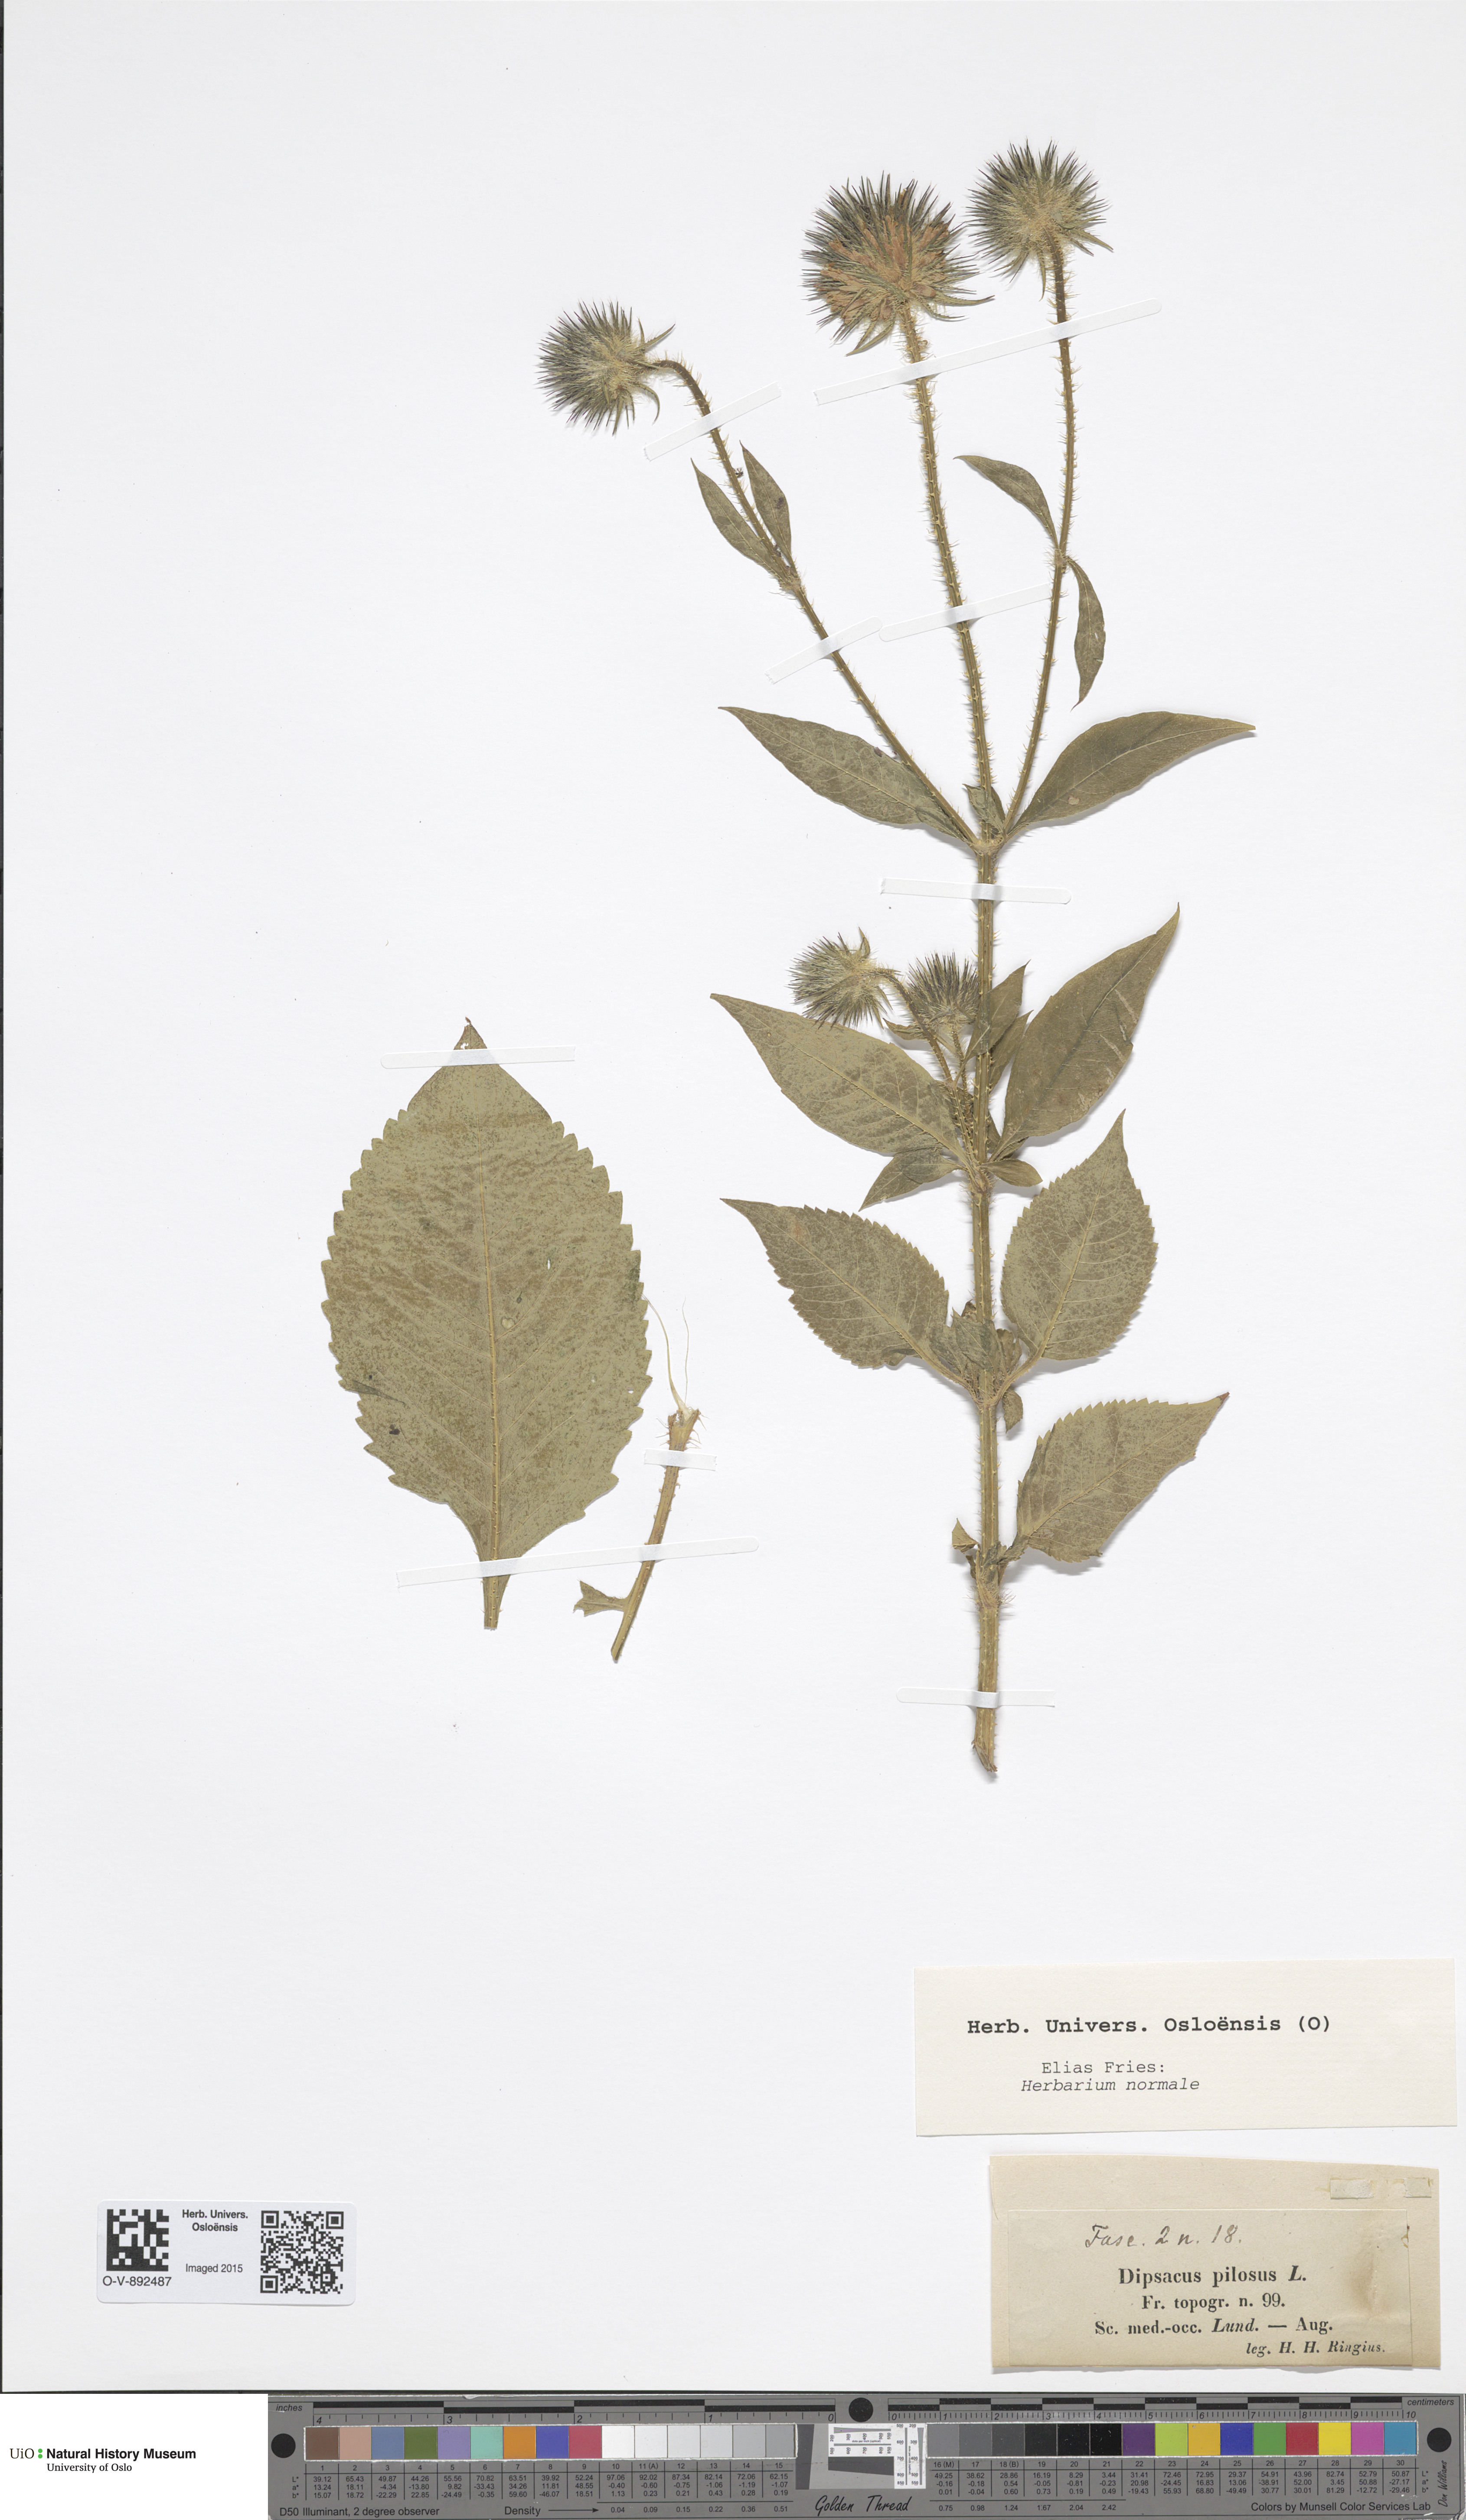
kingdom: Plantae
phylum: Tracheophyta
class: Magnoliopsida
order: Dipsacales
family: Caprifoliaceae
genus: Dipsacus
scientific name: Dipsacus strigosus
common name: Yellow-flowered teasel
